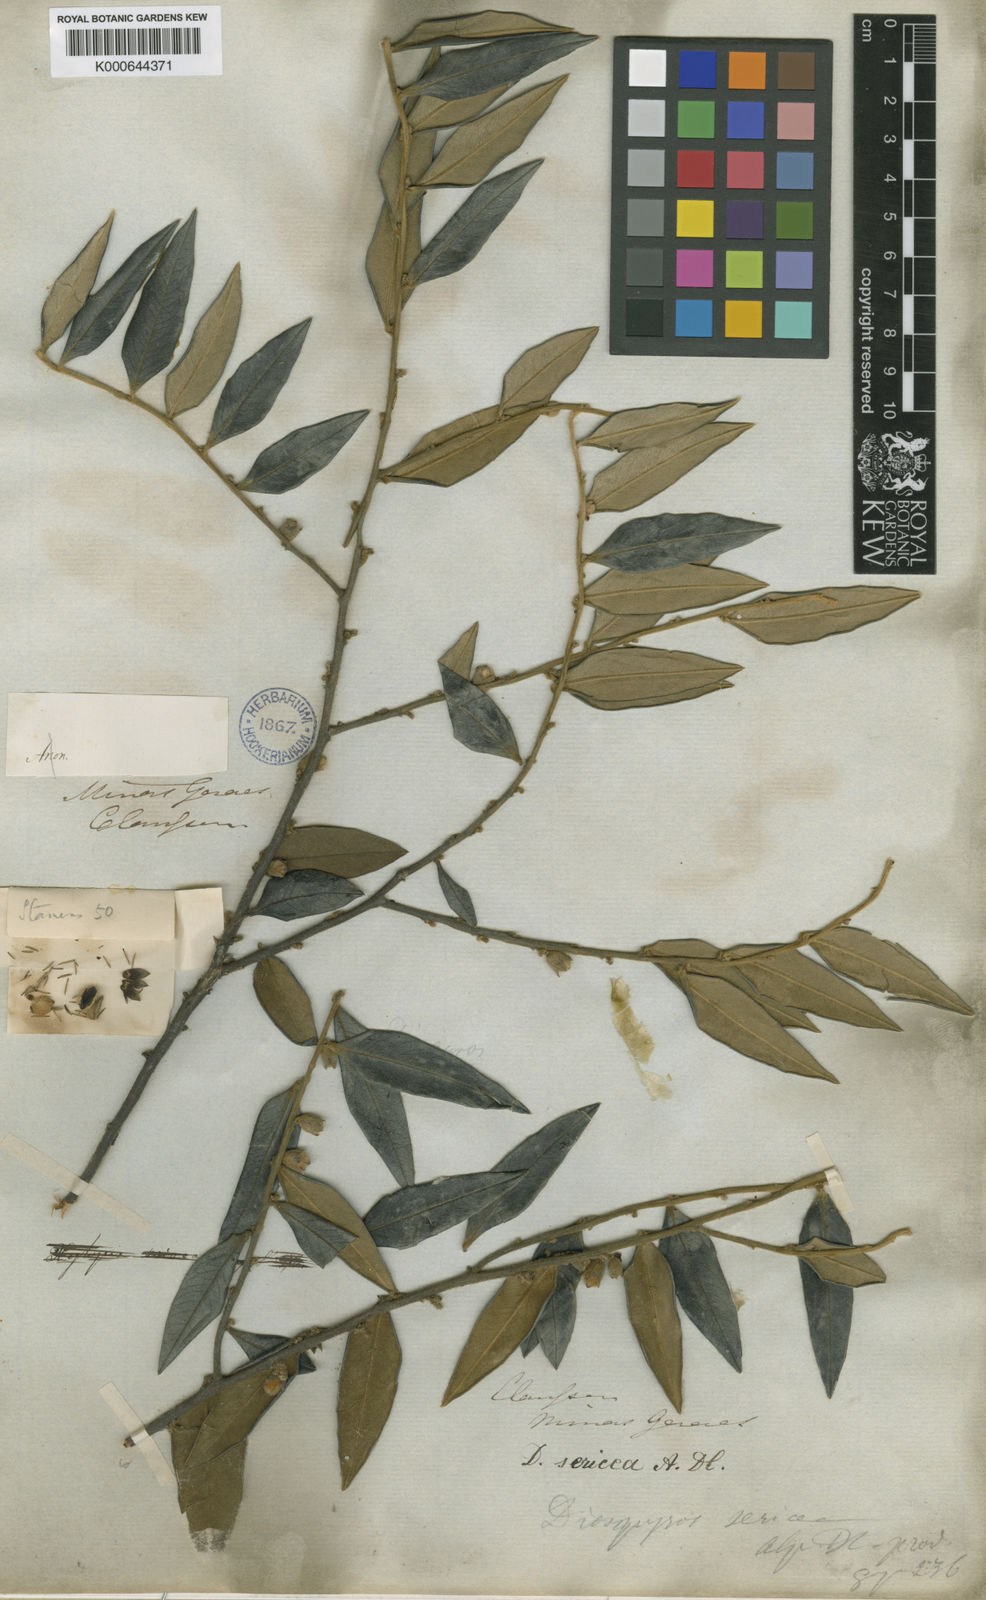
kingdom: Plantae
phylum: Tracheophyta
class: Magnoliopsida
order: Ericales
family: Ebenaceae
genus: Diospyros
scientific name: Diospyros sericea
